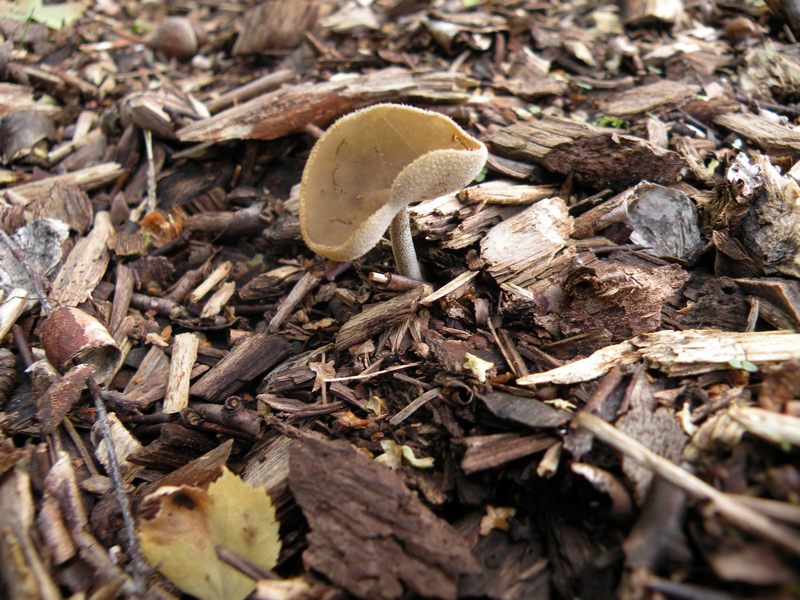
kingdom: Fungi
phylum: Ascomycota
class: Pezizomycetes
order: Pezizales
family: Helvellaceae
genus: Helvella
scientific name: Helvella macropus
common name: højstokket foldhat
